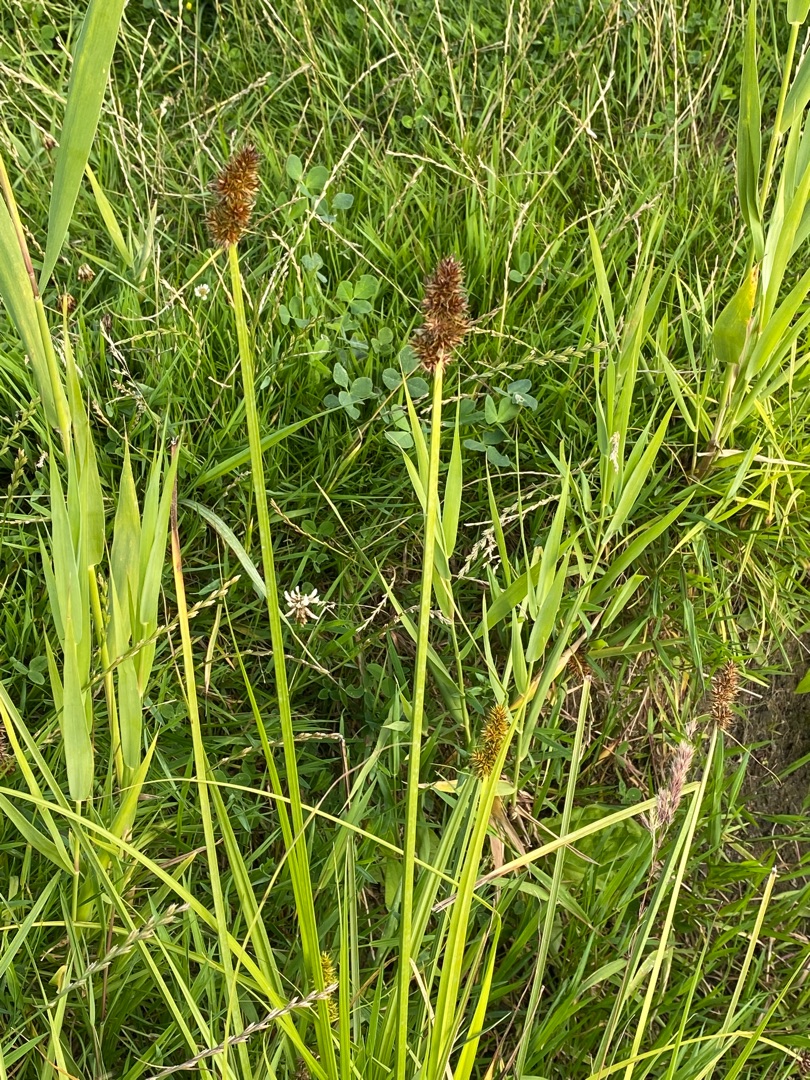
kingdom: Plantae
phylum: Tracheophyta
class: Liliopsida
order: Poales
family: Cyperaceae
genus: Carex
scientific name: Carex otrubae
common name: Sylt-star
